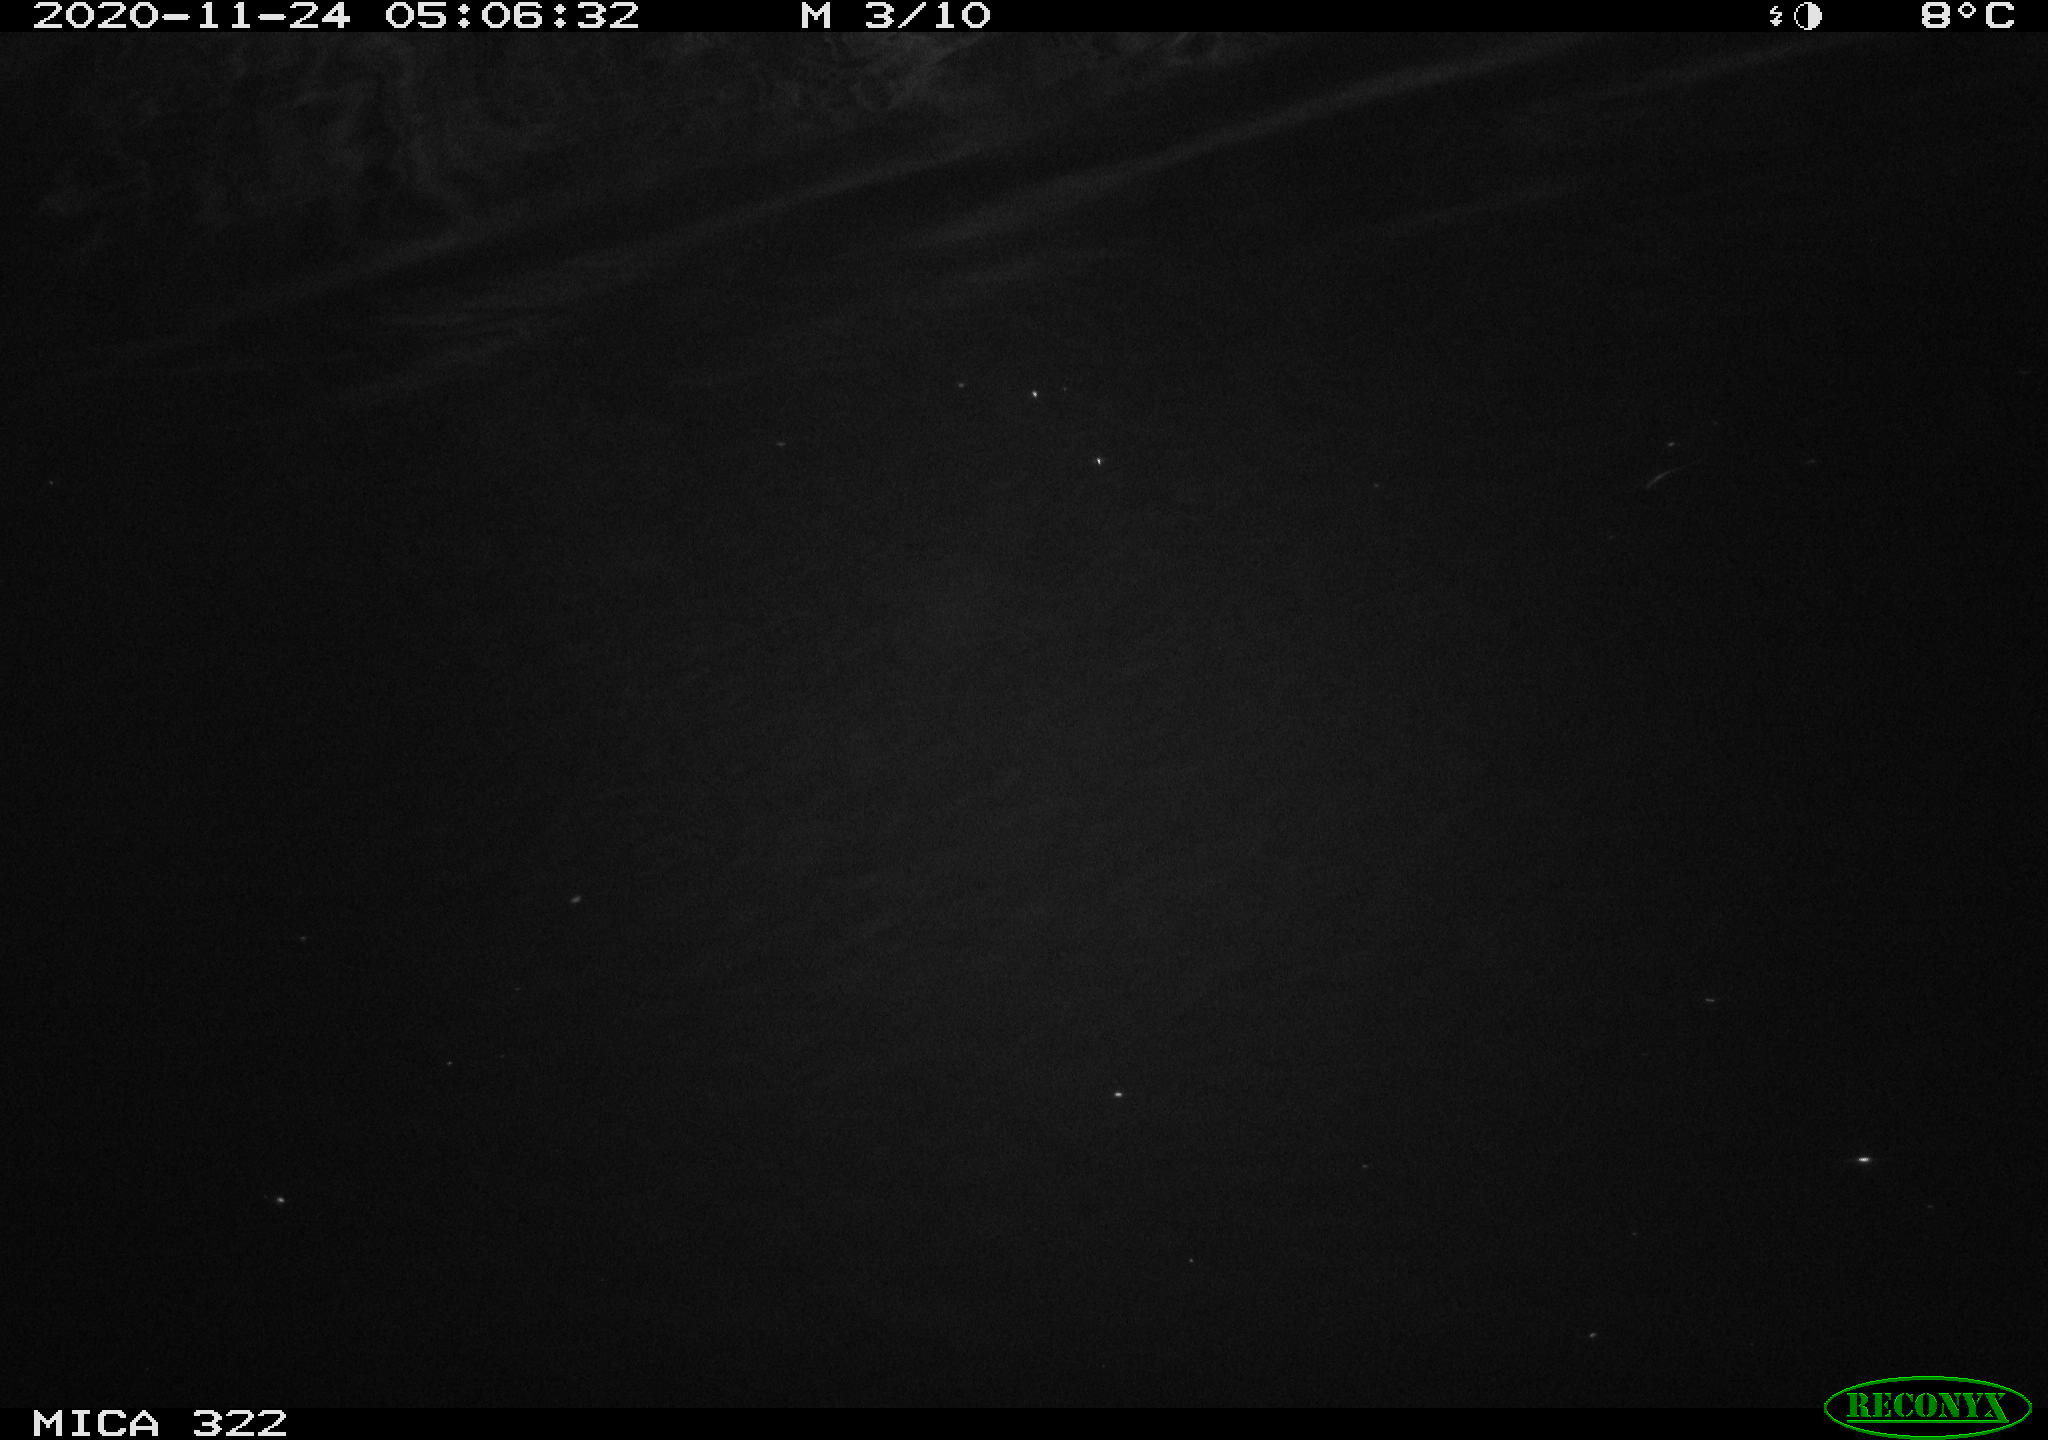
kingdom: Animalia
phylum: Chordata
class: Aves
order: Anseriformes
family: Anatidae
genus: Anas
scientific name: Anas platyrhynchos
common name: Mallard
